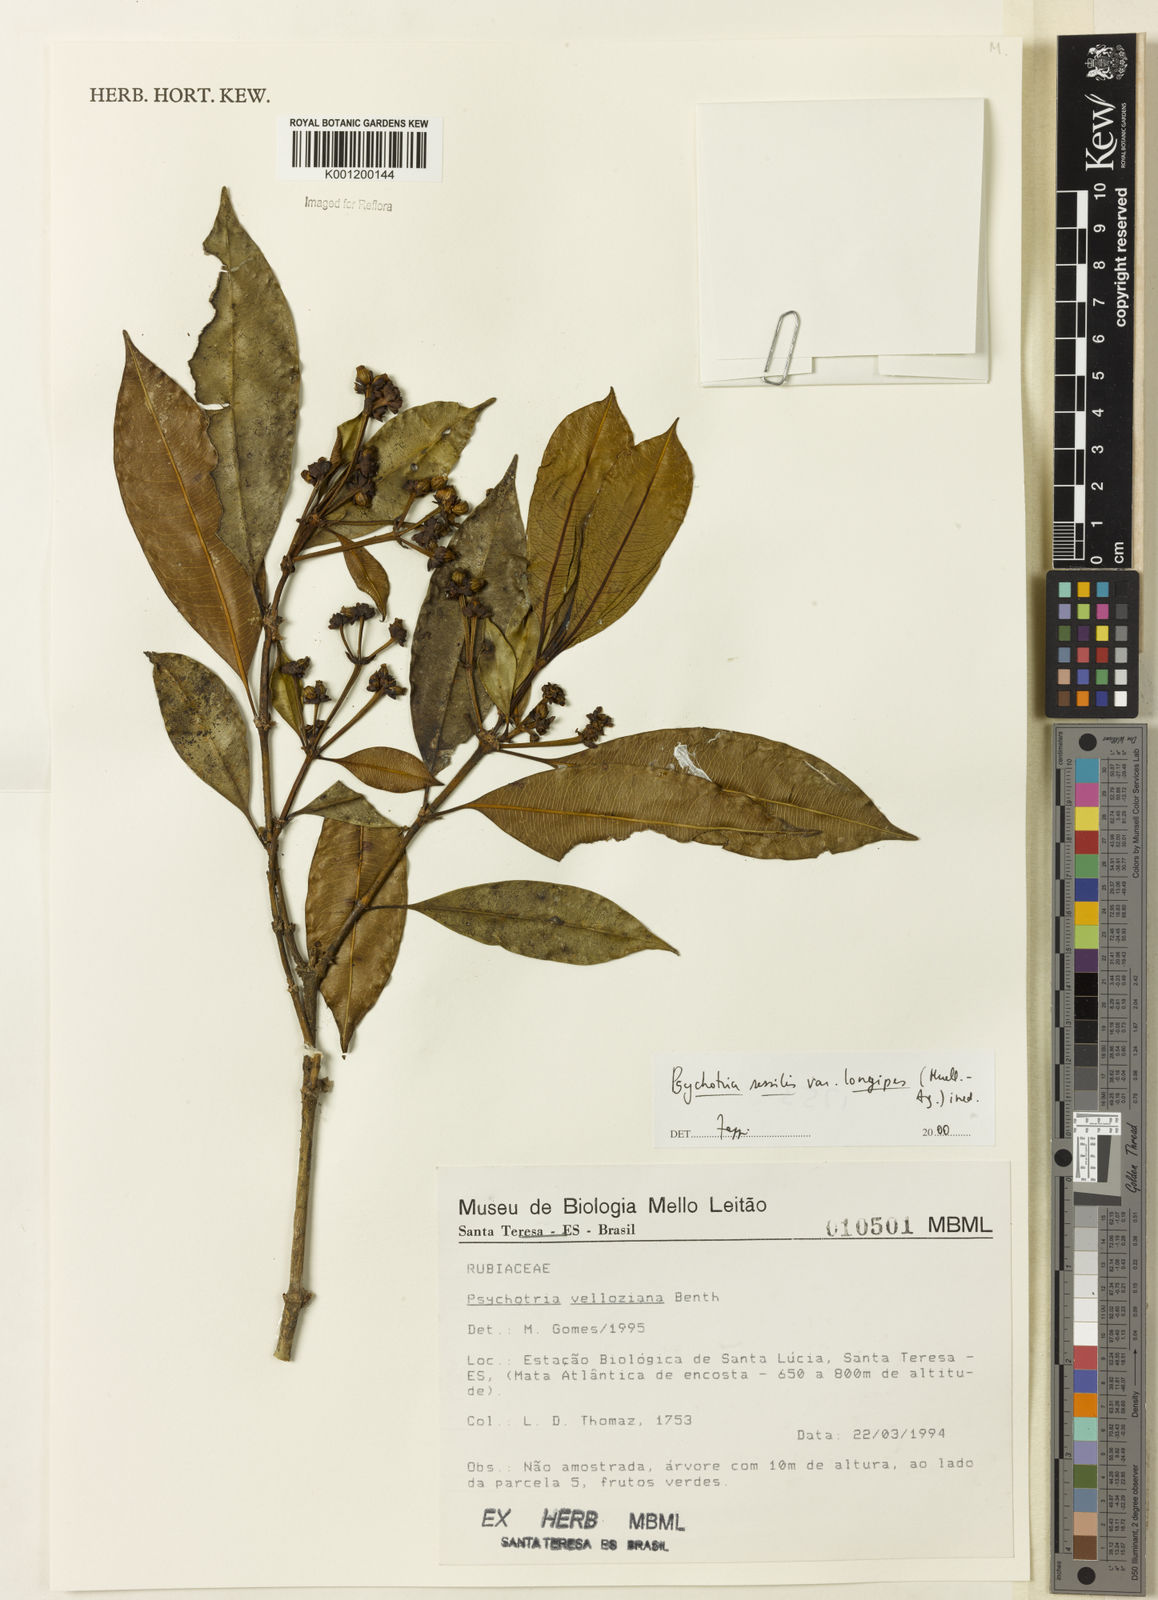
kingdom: Plantae
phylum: Tracheophyta
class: Magnoliopsida
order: Gentianales
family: Rubiaceae
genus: Rudgea
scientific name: Rudgea sessilis
